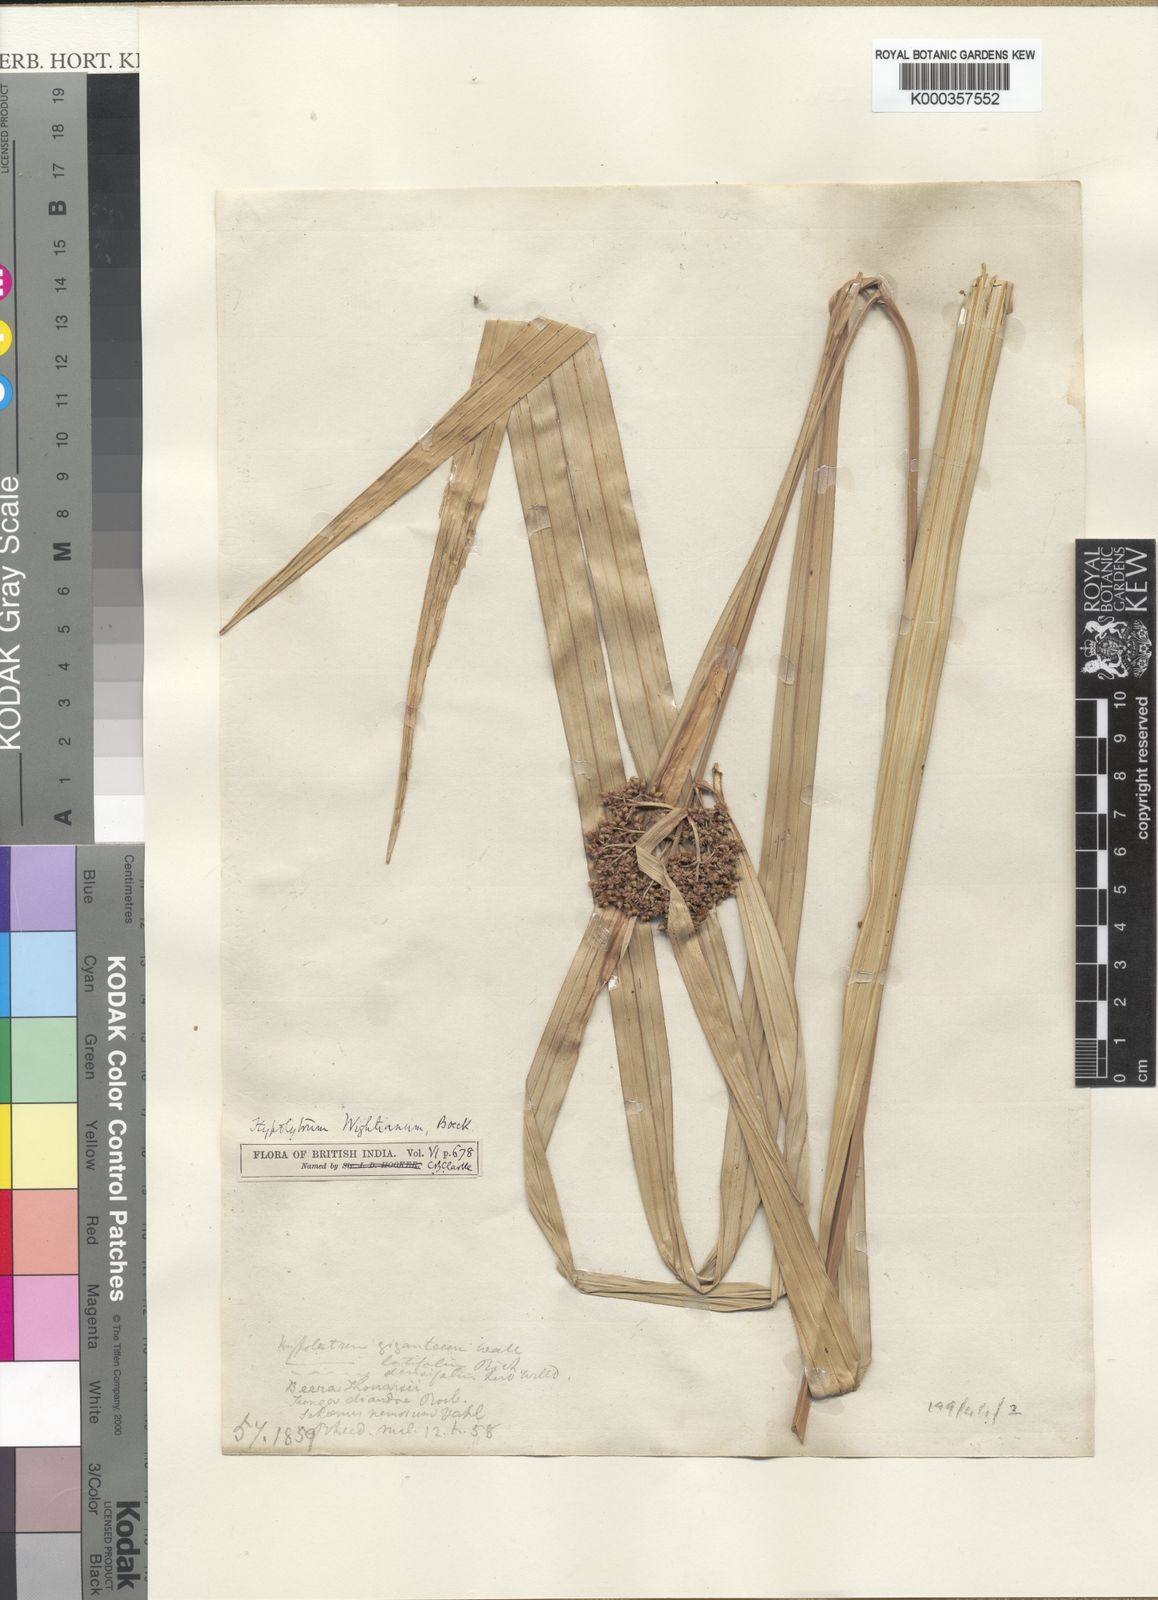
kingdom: Plantae
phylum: Tracheophyta
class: Liliopsida
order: Poales
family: Cyperaceae
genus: Hypolytrum
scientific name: Hypolytrum
